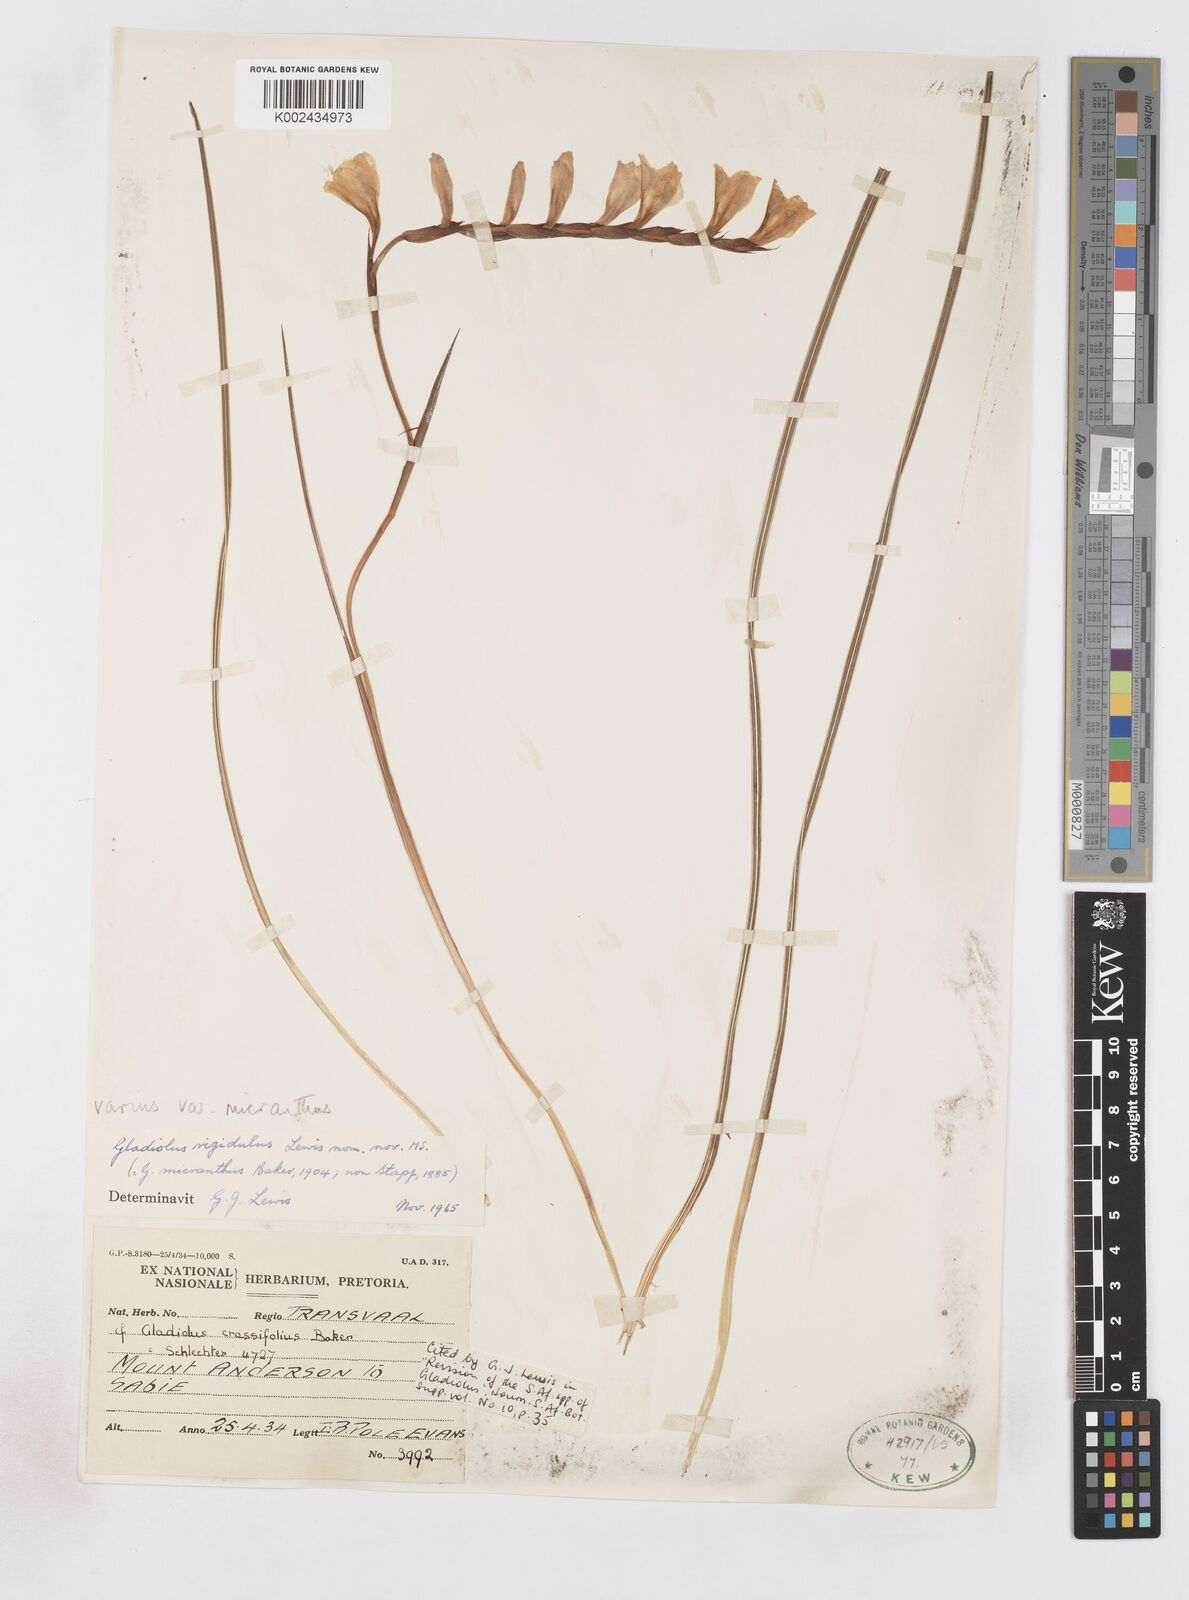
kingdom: Plantae
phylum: Tracheophyta
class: Liliopsida
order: Asparagales
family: Iridaceae
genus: Gladiolus
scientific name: Gladiolus ferrugineus
